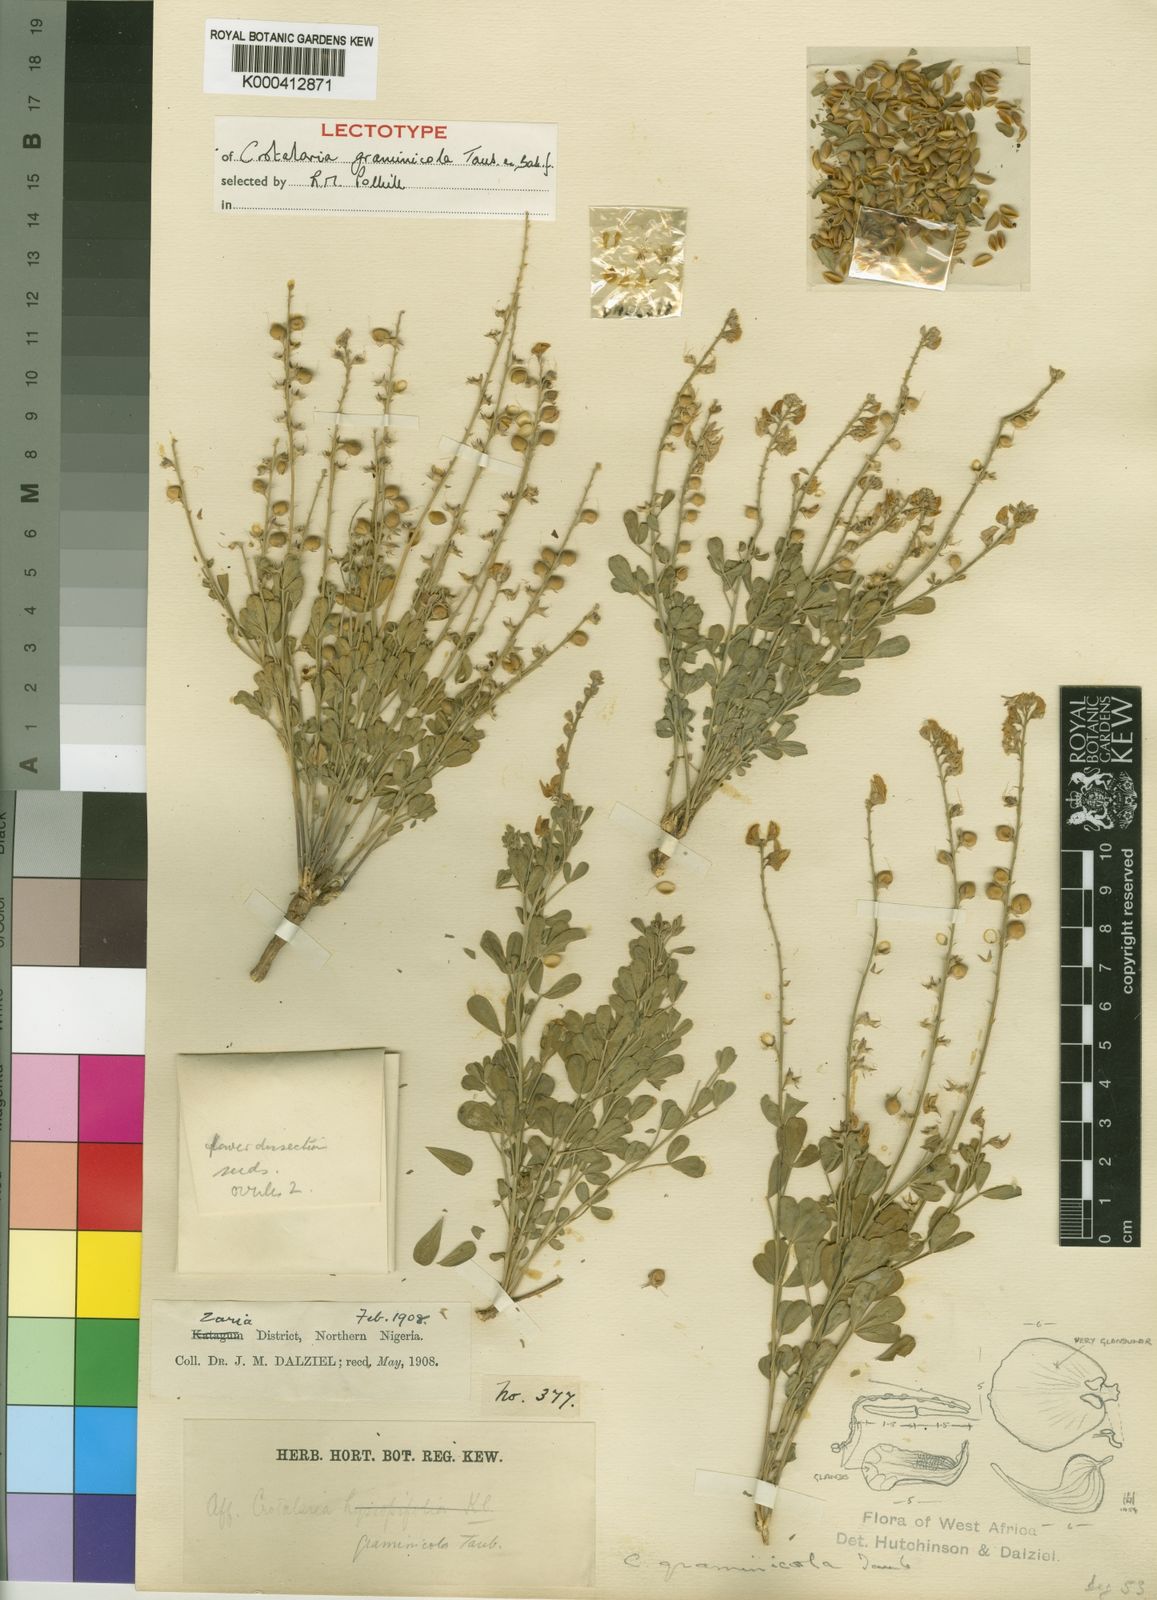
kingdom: Plantae
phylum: Tracheophyta
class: Magnoliopsida
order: Fabales
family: Fabaceae
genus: Crotalaria
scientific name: Crotalaria graminicola
